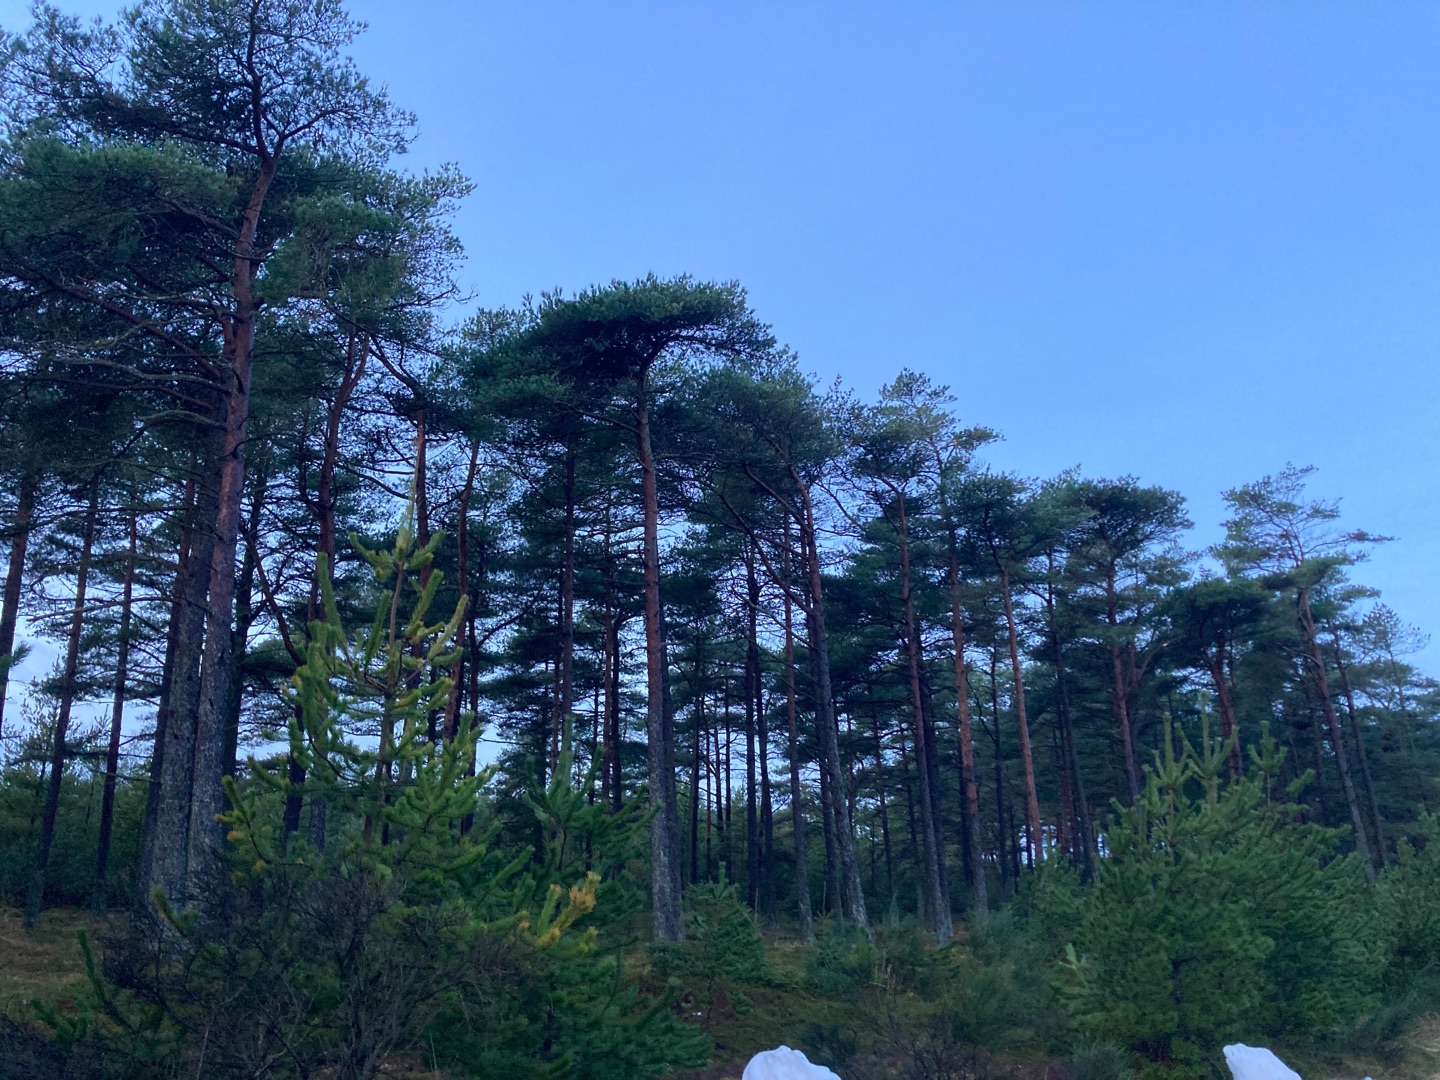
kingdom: Plantae
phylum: Tracheophyta
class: Pinopsida
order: Pinales
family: Pinaceae
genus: Pinus
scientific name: Pinus sylvestris
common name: Skov-fyr
